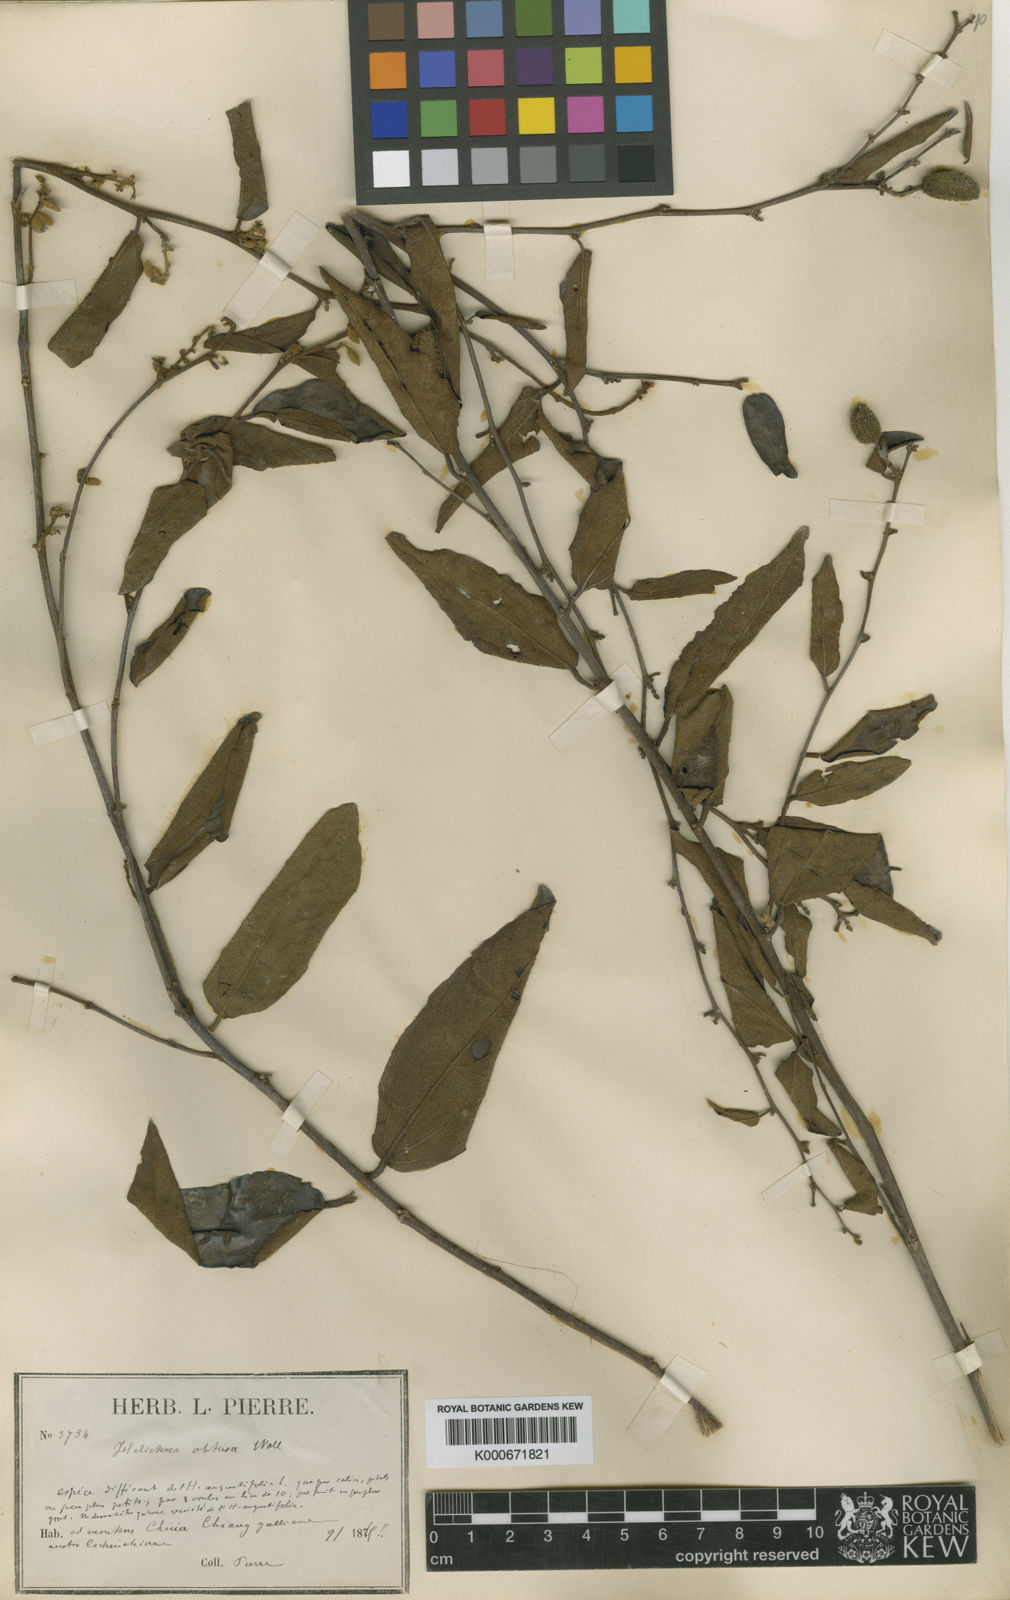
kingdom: Plantae
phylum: Tracheophyta
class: Magnoliopsida
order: Malvales
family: Malvaceae
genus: Helicteres
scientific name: Helicteres angustifolia
